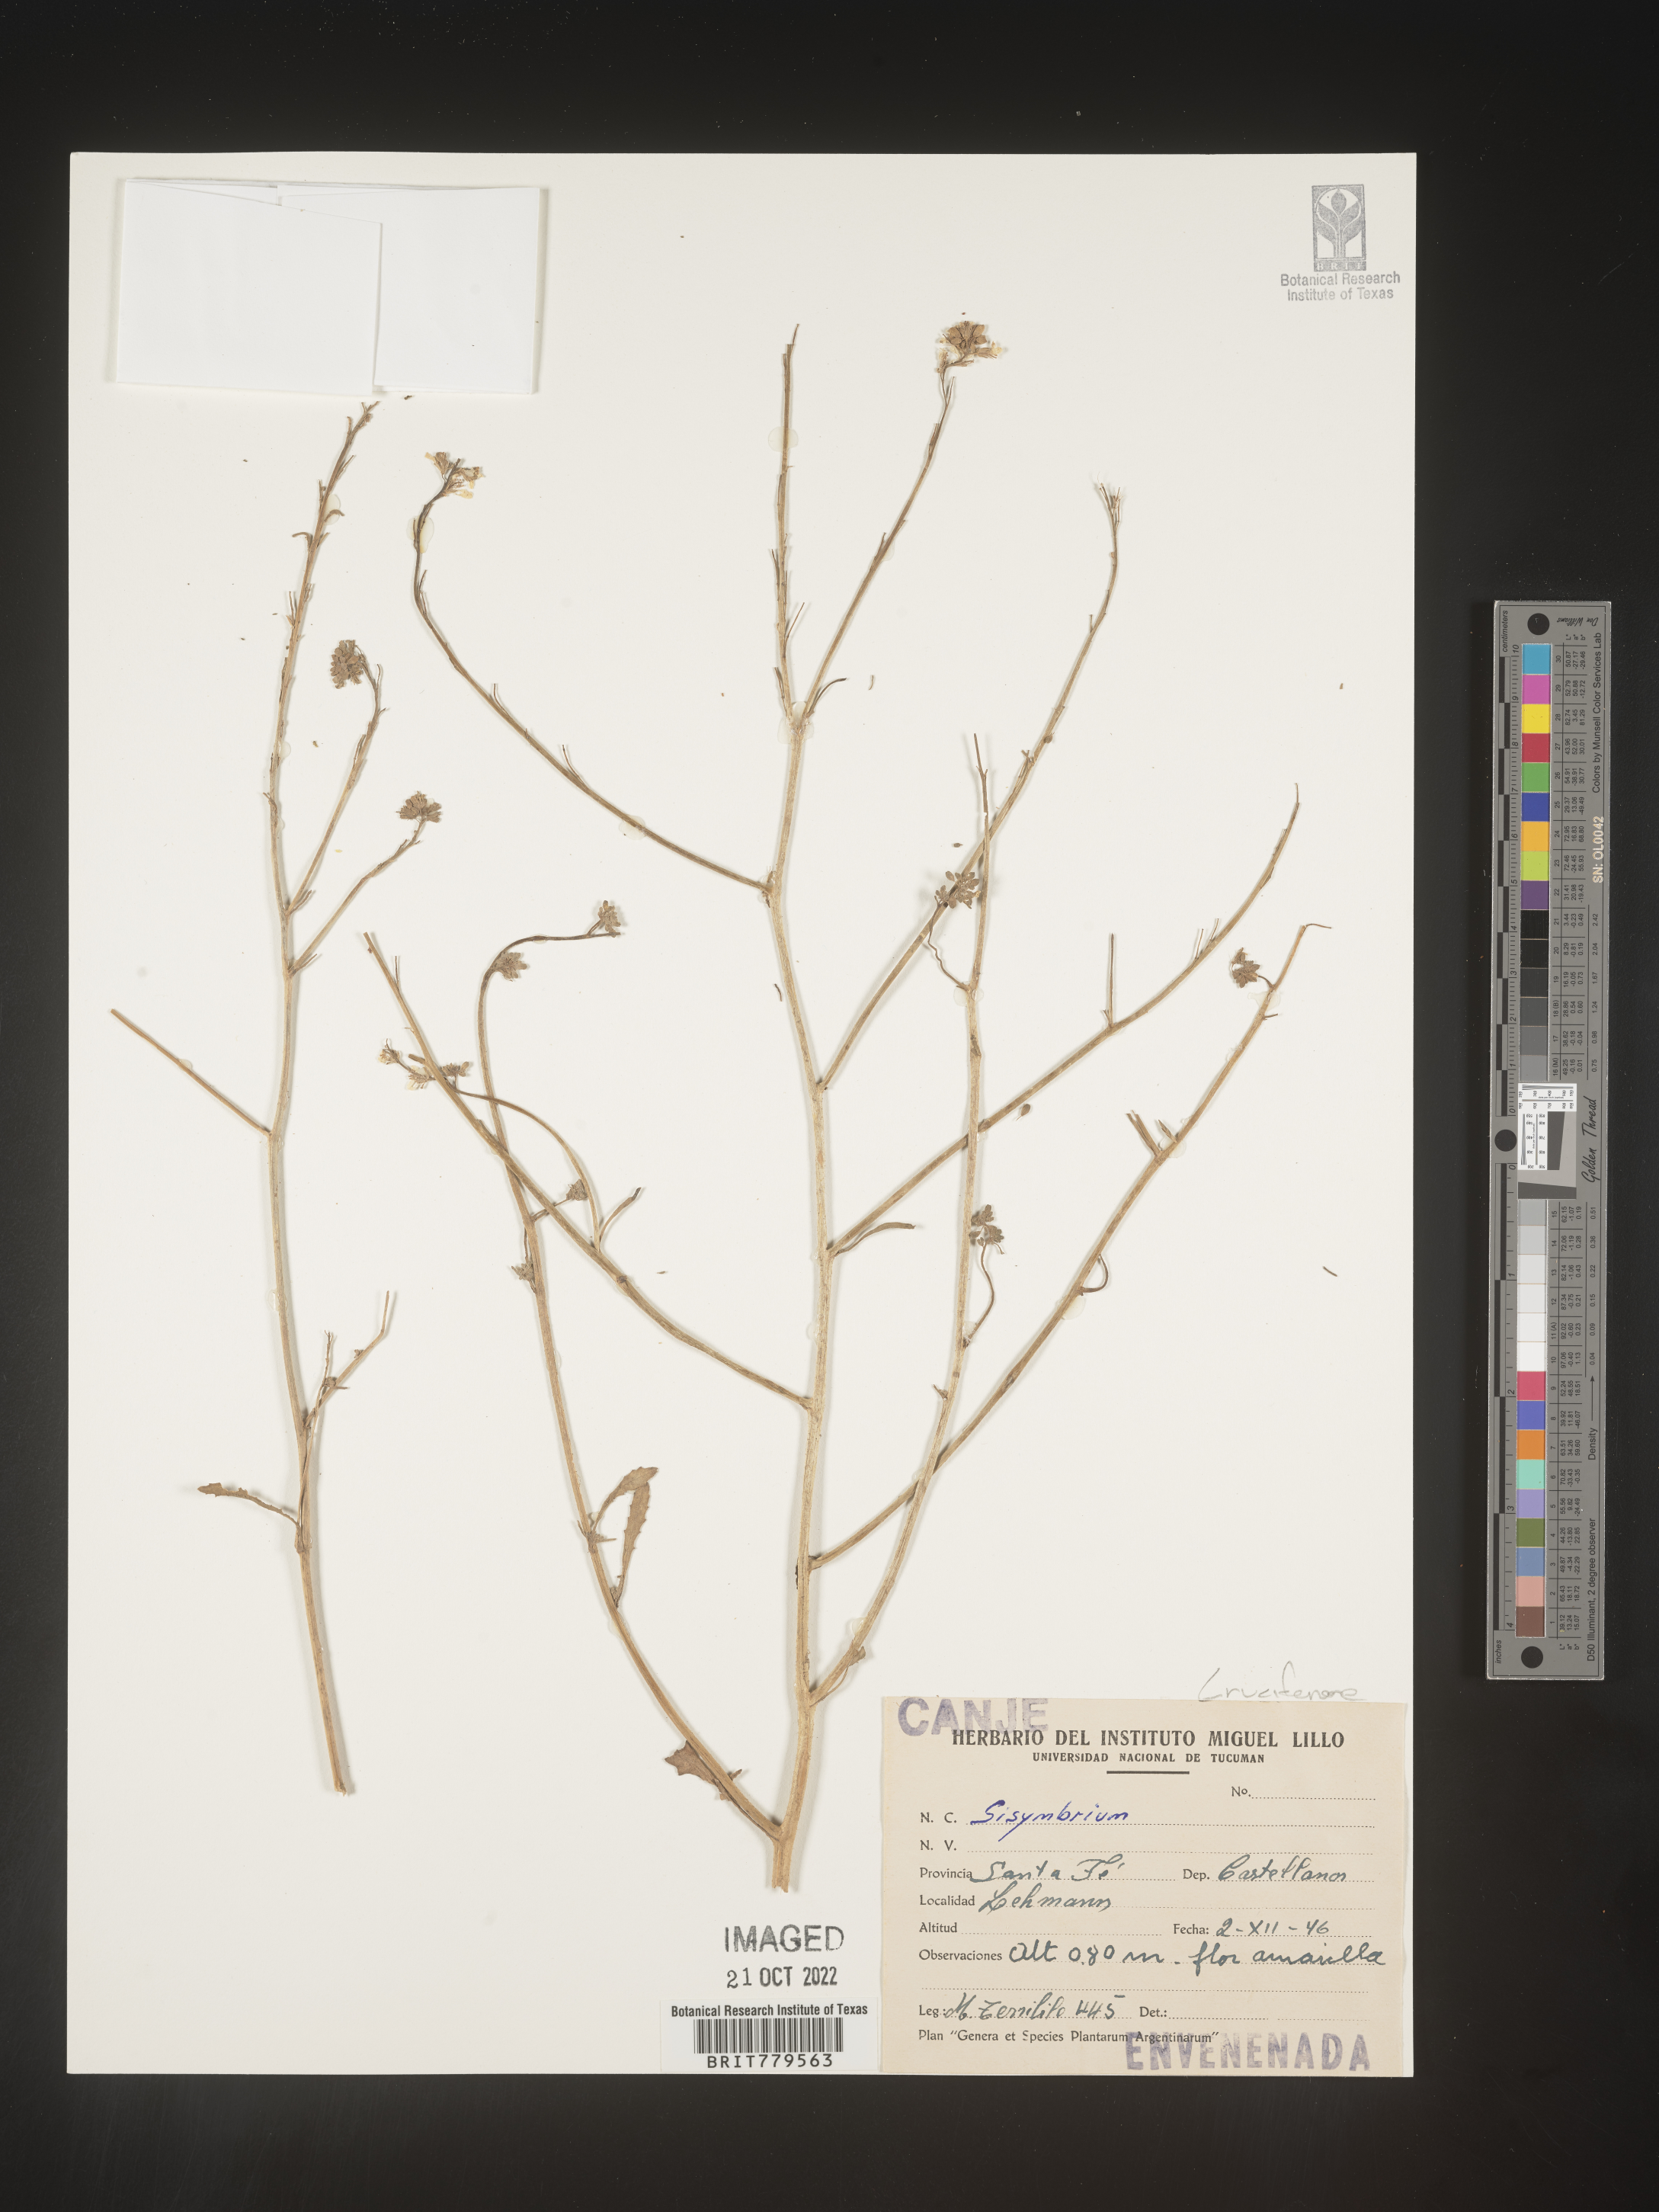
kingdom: Plantae
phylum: Tracheophyta
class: Magnoliopsida
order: Brassicales
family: Brassicaceae
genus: Sisymbrium
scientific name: Sisymbrium
